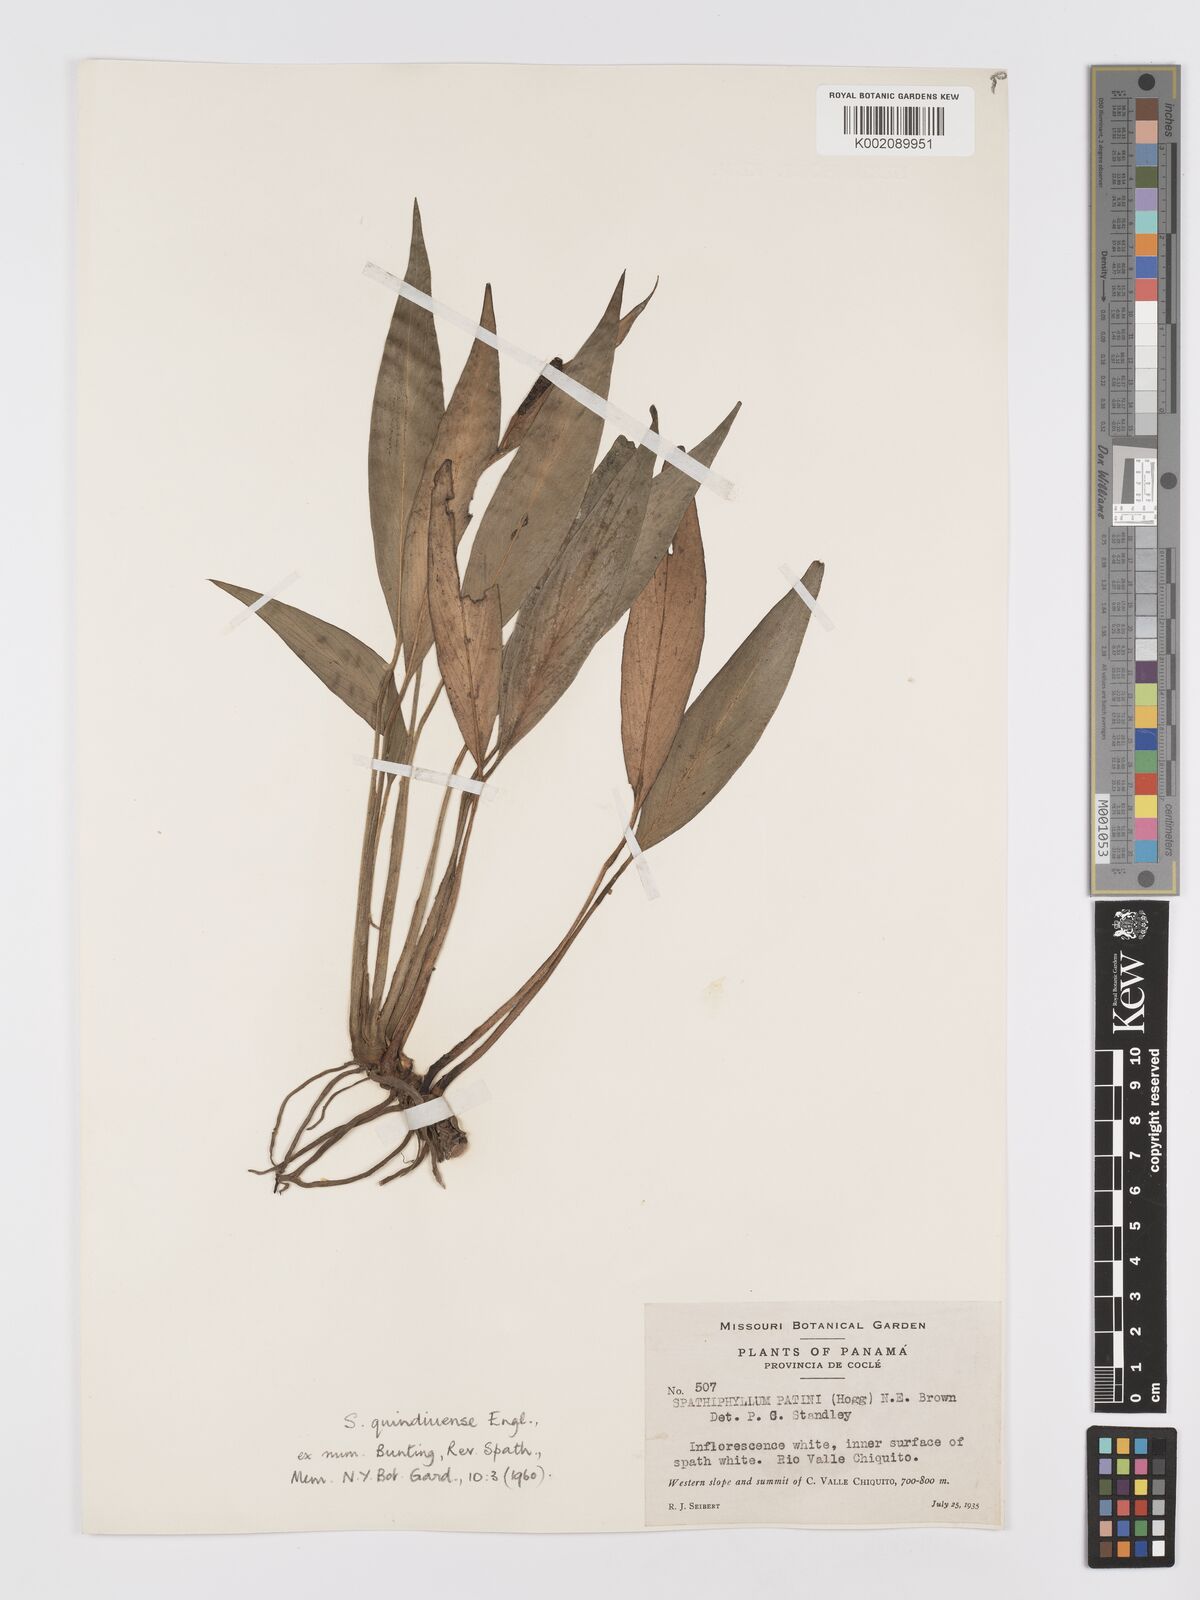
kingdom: Plantae
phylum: Tracheophyta
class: Liliopsida
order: Alismatales
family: Araceae
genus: Spathiphyllum
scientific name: Spathiphyllum quindiuense
